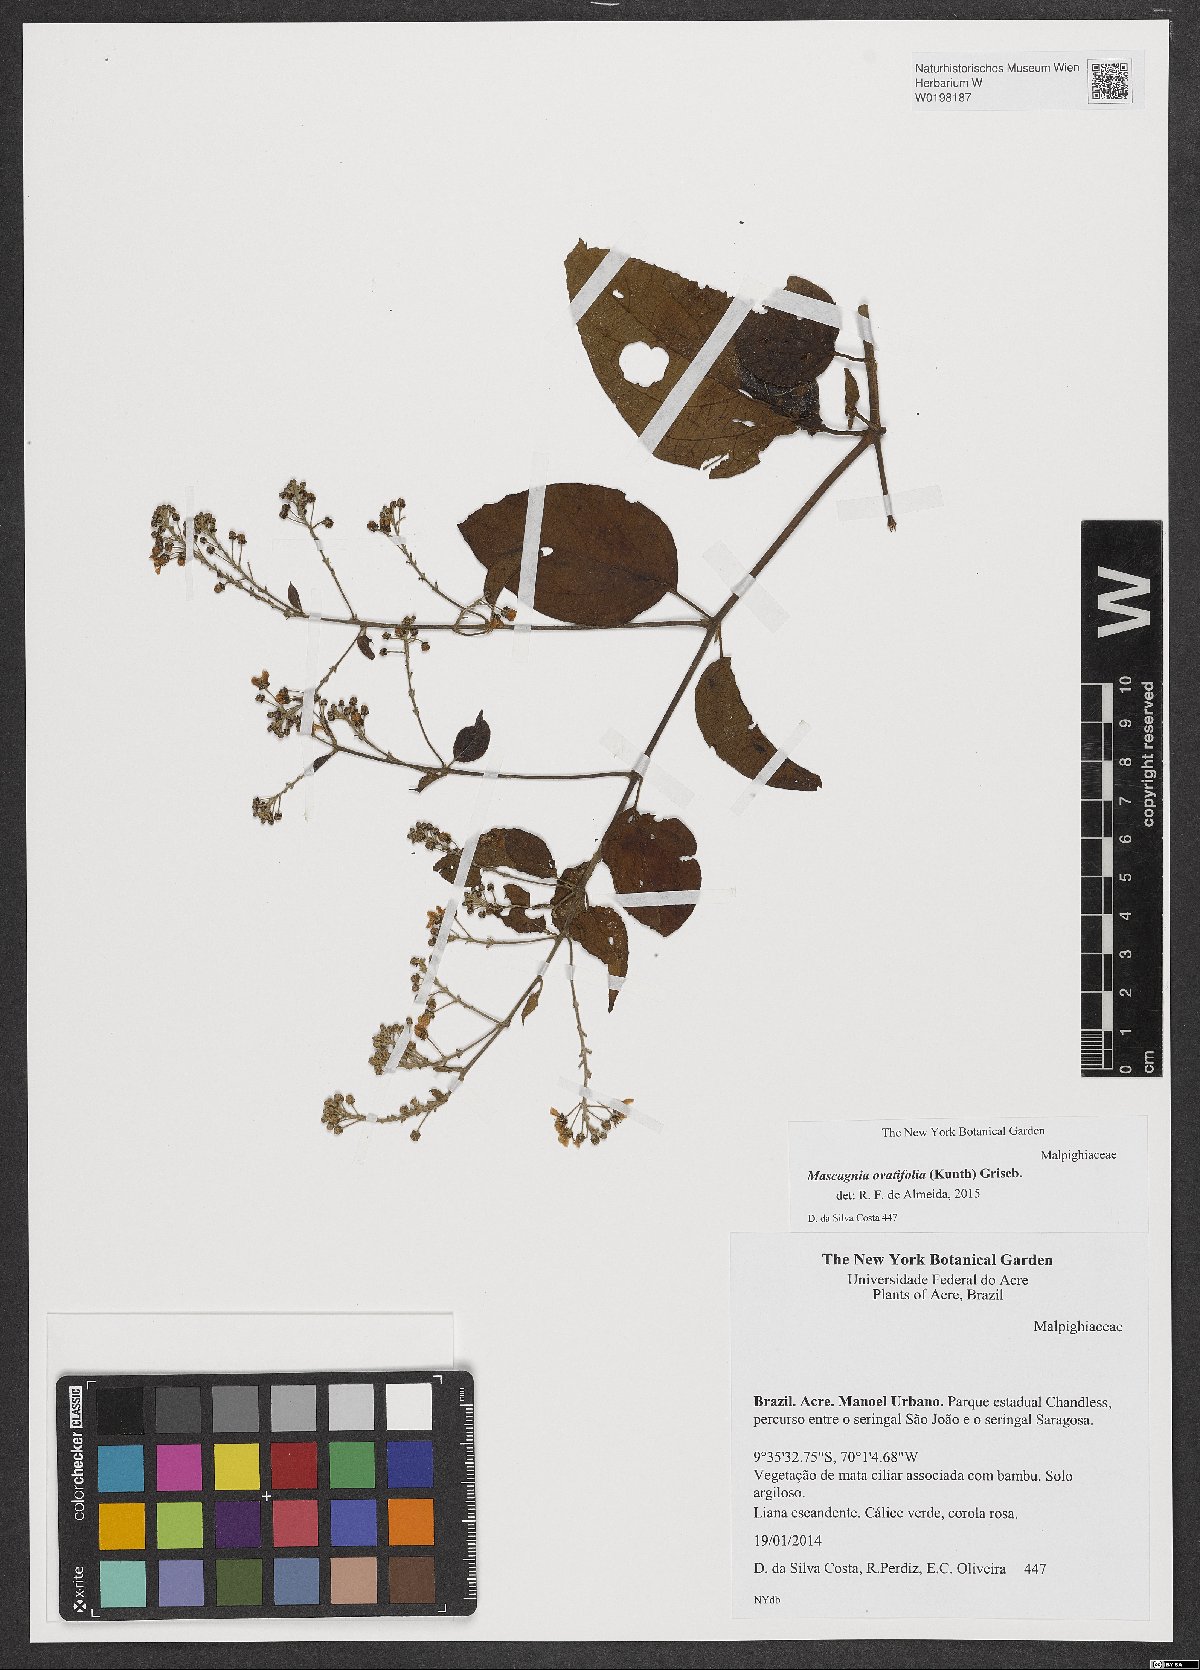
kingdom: Plantae
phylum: Tracheophyta
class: Magnoliopsida
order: Malpighiales
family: Malpighiaceae
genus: Mascagnia
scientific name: Mascagnia ovatifolia
